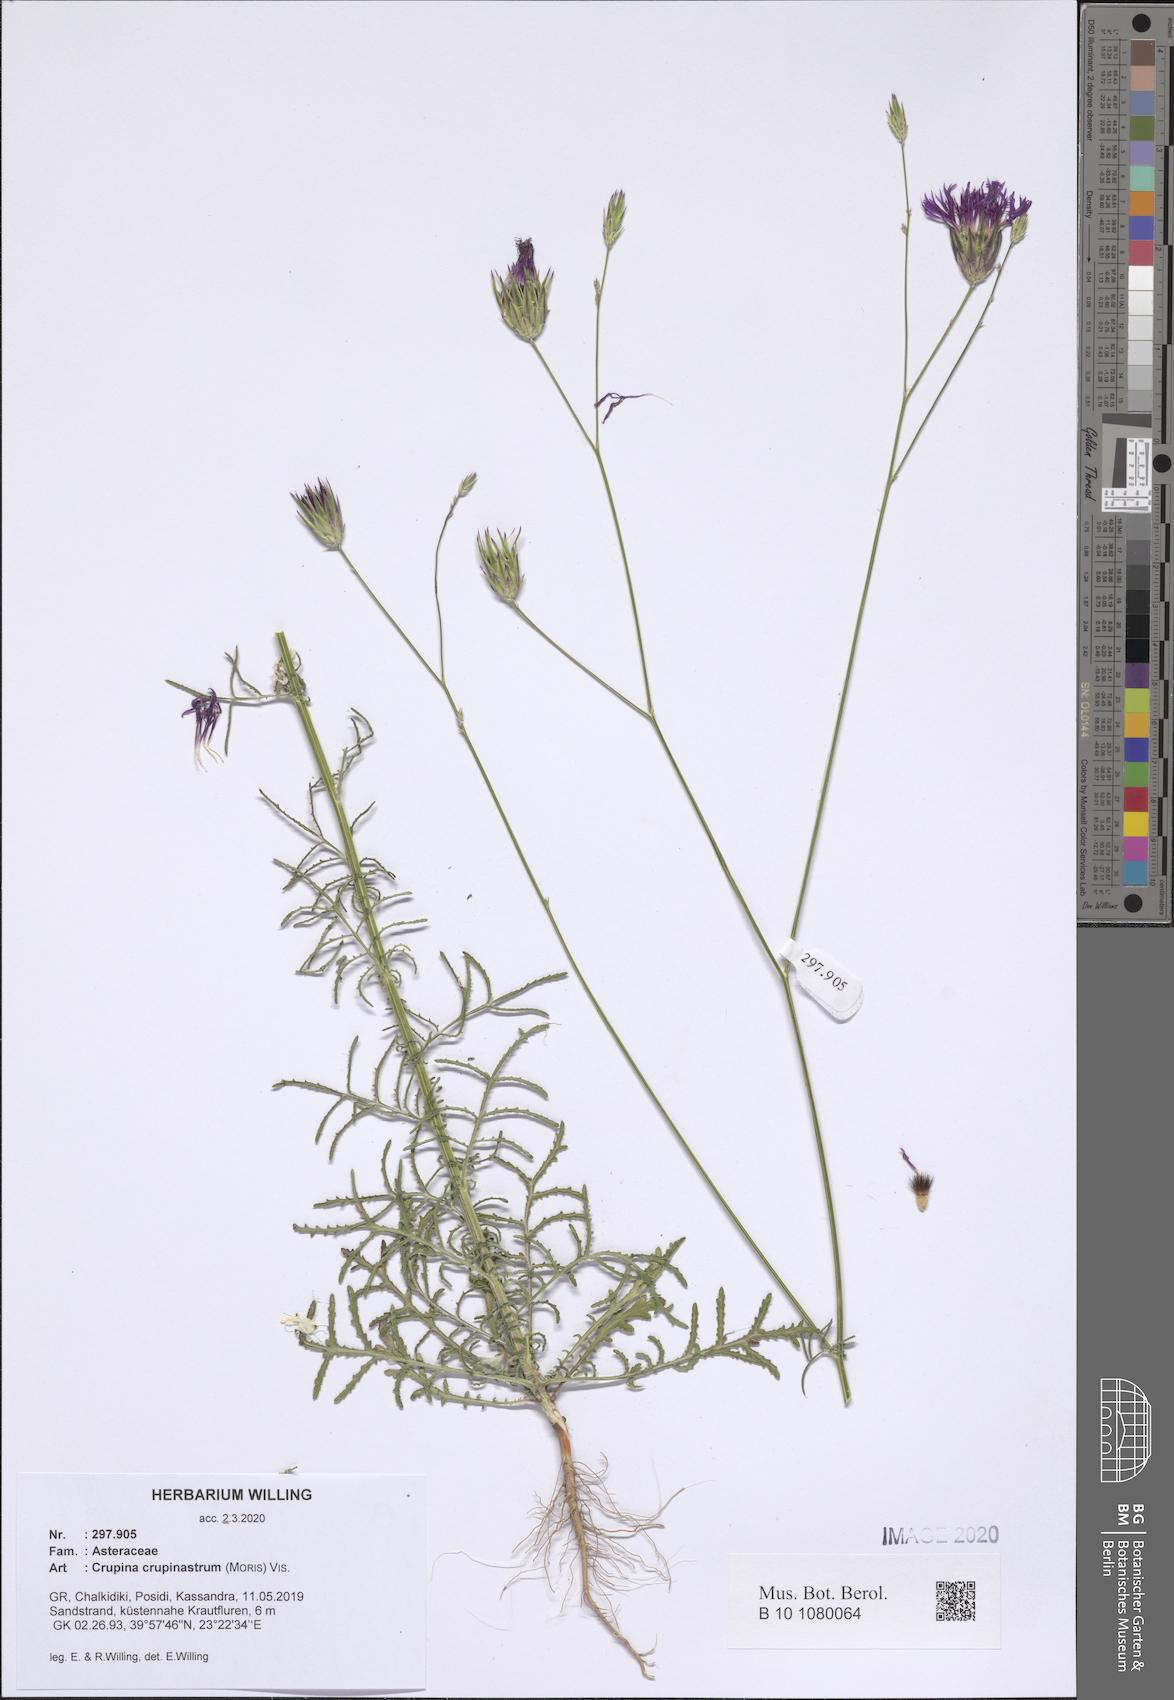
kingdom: Plantae
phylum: Tracheophyta
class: Magnoliopsida
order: Asterales
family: Asteraceae
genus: Crupina
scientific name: Crupina crupinastrum
